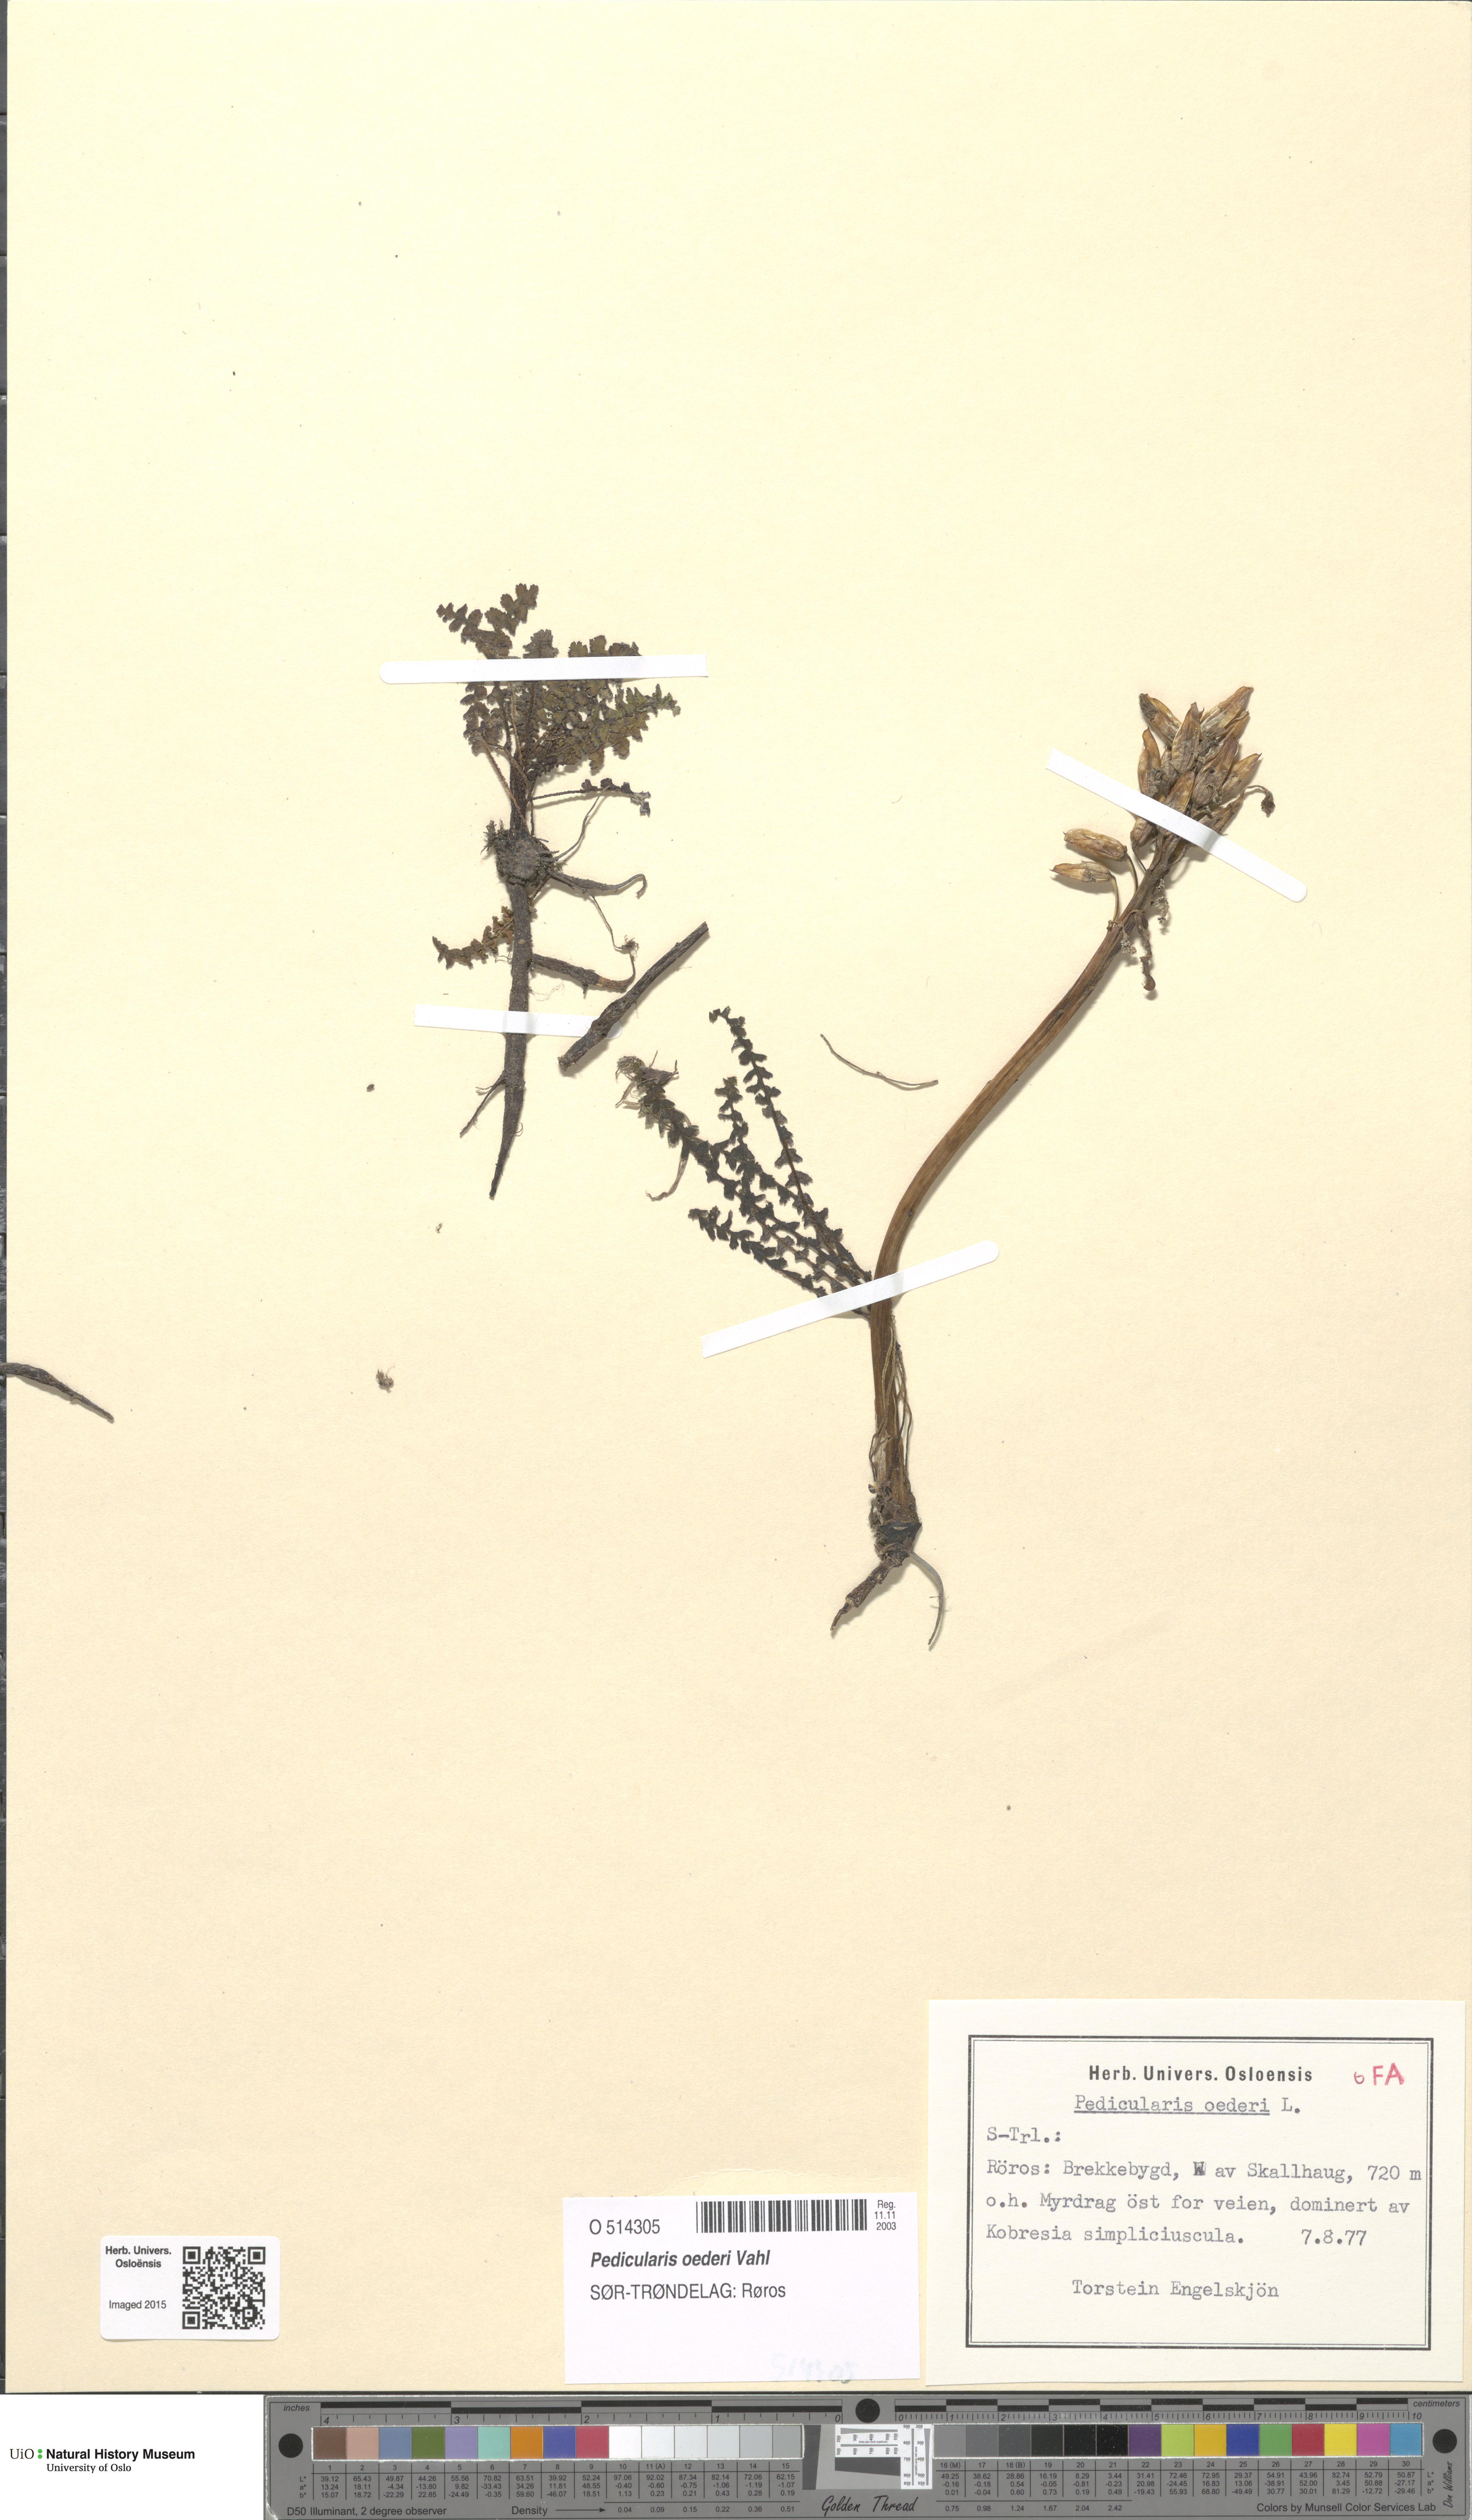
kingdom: Plantae
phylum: Tracheophyta
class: Magnoliopsida
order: Lamiales
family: Orobanchaceae
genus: Pedicularis
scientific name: Pedicularis oederi
